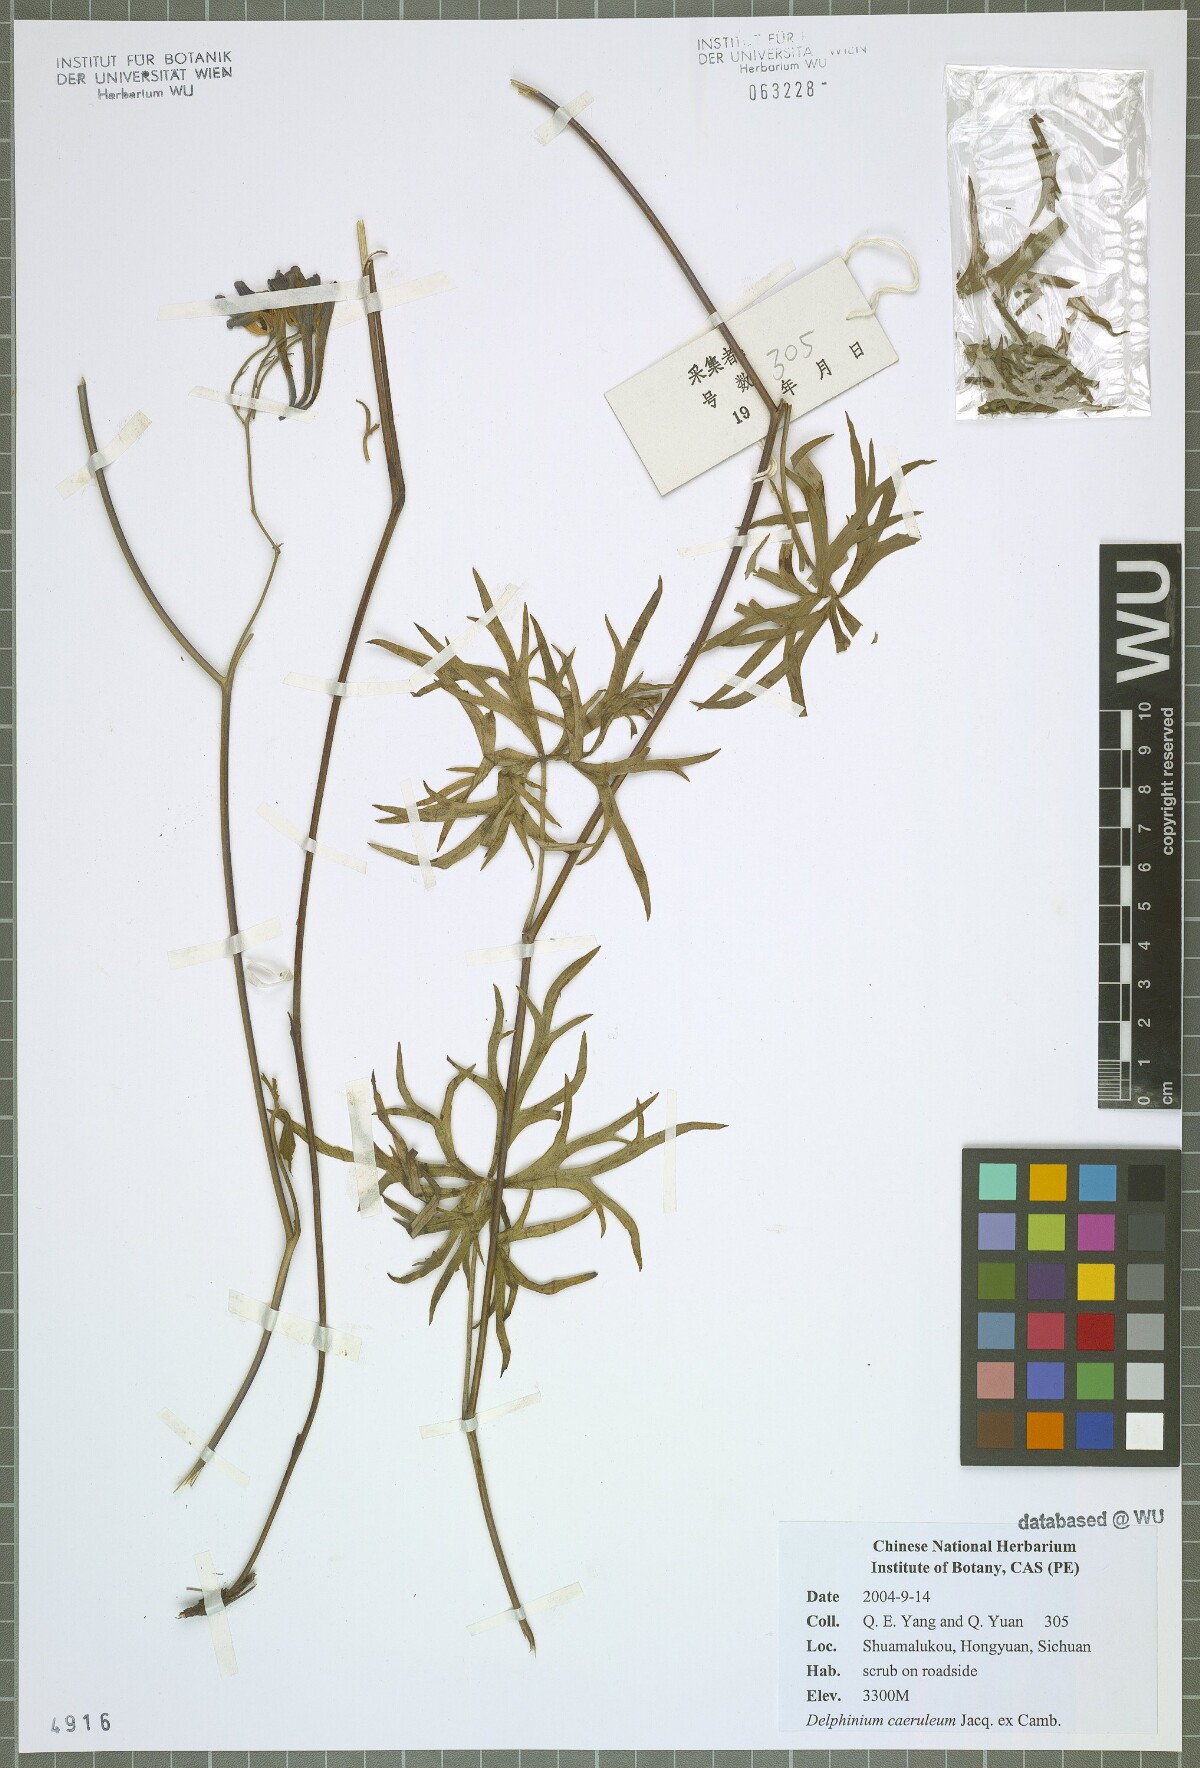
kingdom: Plantae
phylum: Tracheophyta
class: Magnoliopsida
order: Ranunculales
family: Ranunculaceae
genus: Delphinium
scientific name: Delphinium caeruleum
